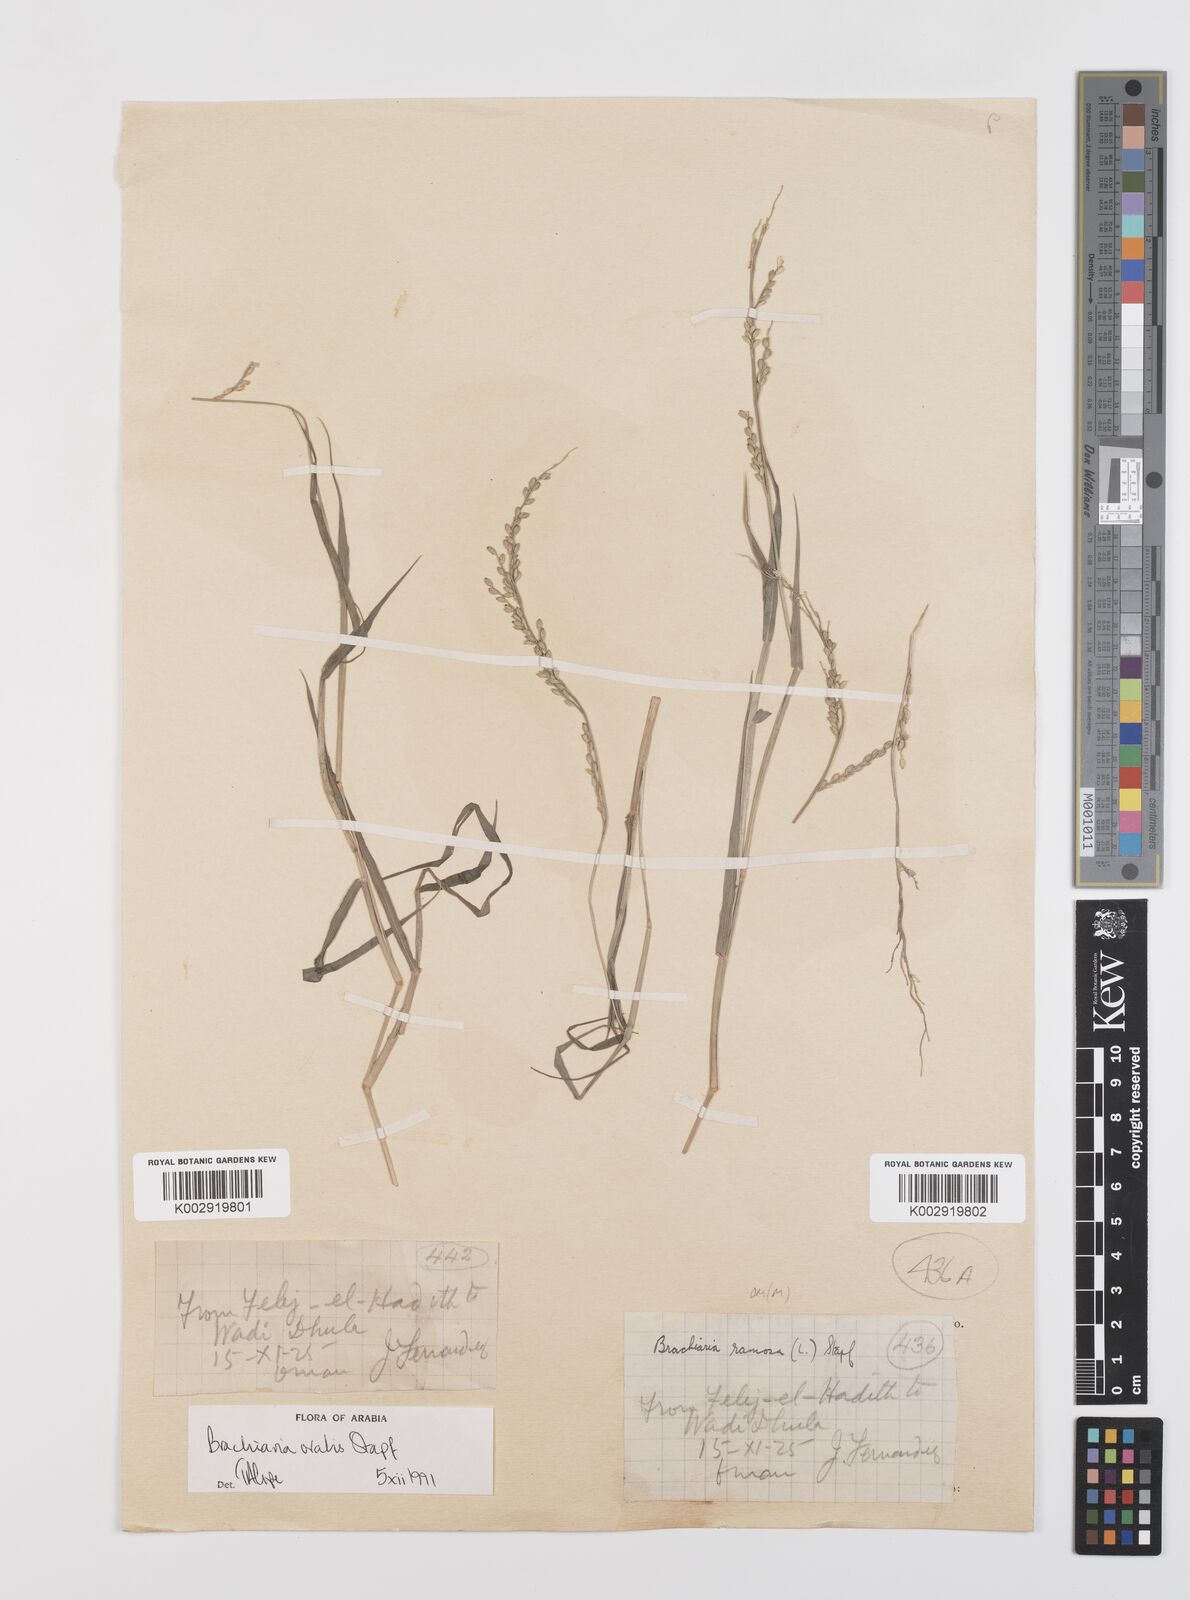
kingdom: Plantae
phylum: Tracheophyta
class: Liliopsida
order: Poales
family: Poaceae
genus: Urochloa
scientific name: Urochloa ovalis
